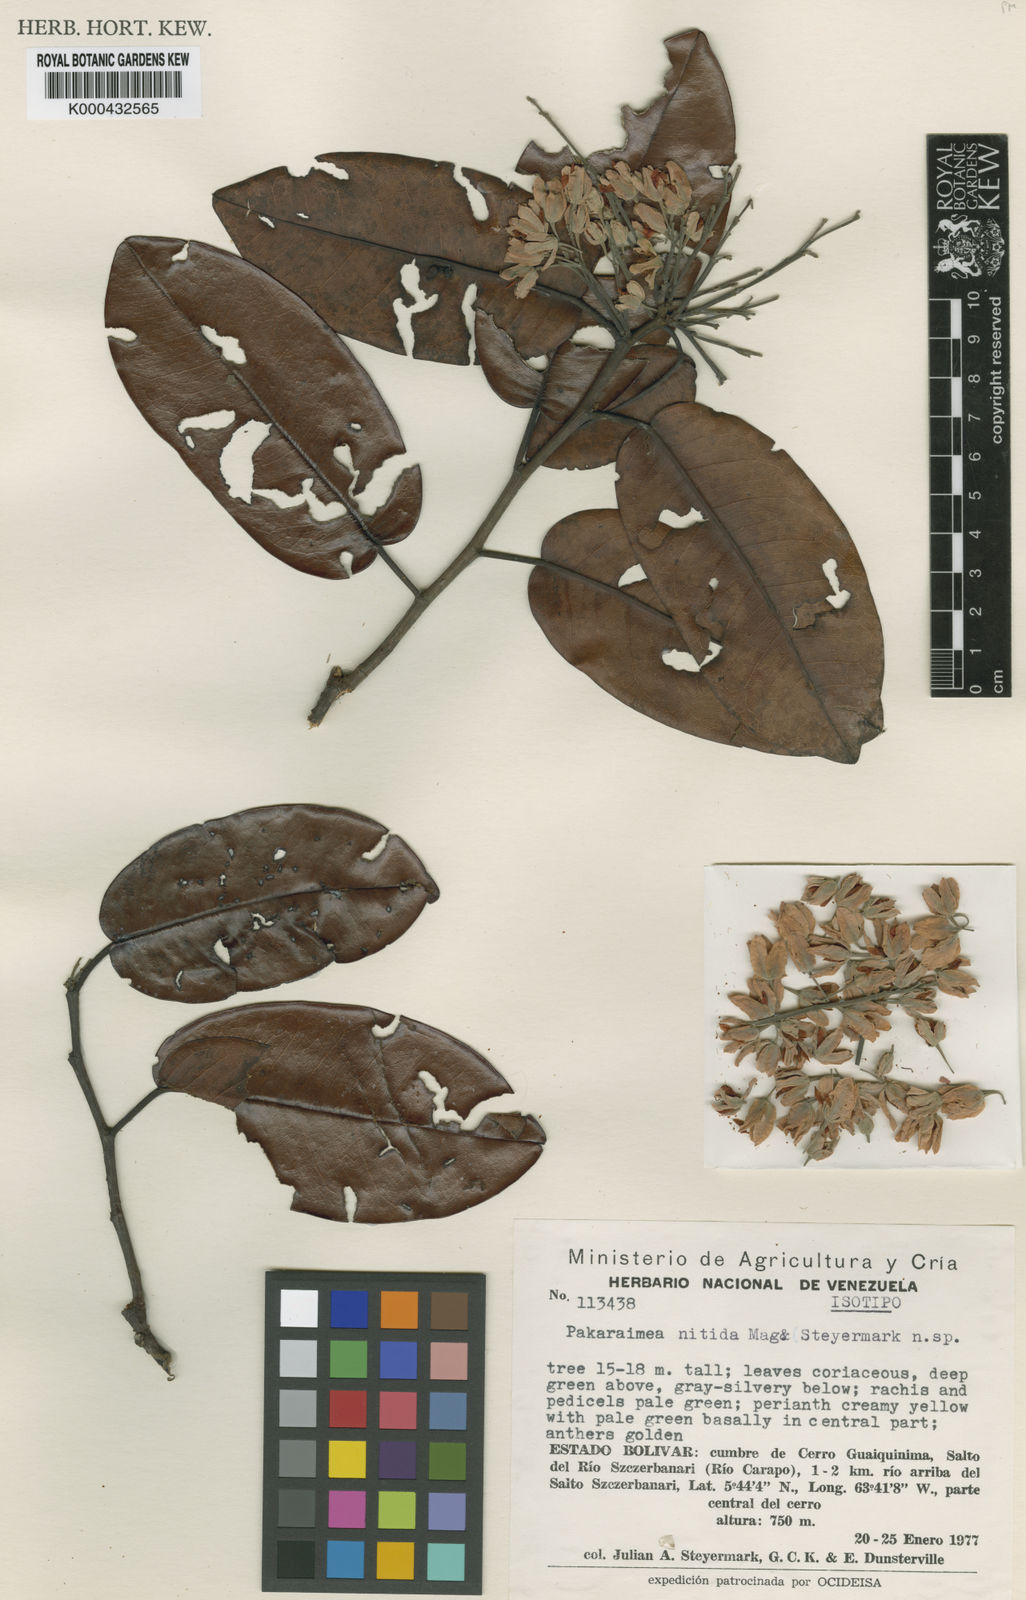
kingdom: Plantae
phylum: Tracheophyta
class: Magnoliopsida
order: Malvales
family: Dipterocarpaceae
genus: Pakaraimaea
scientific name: Pakaraimaea
